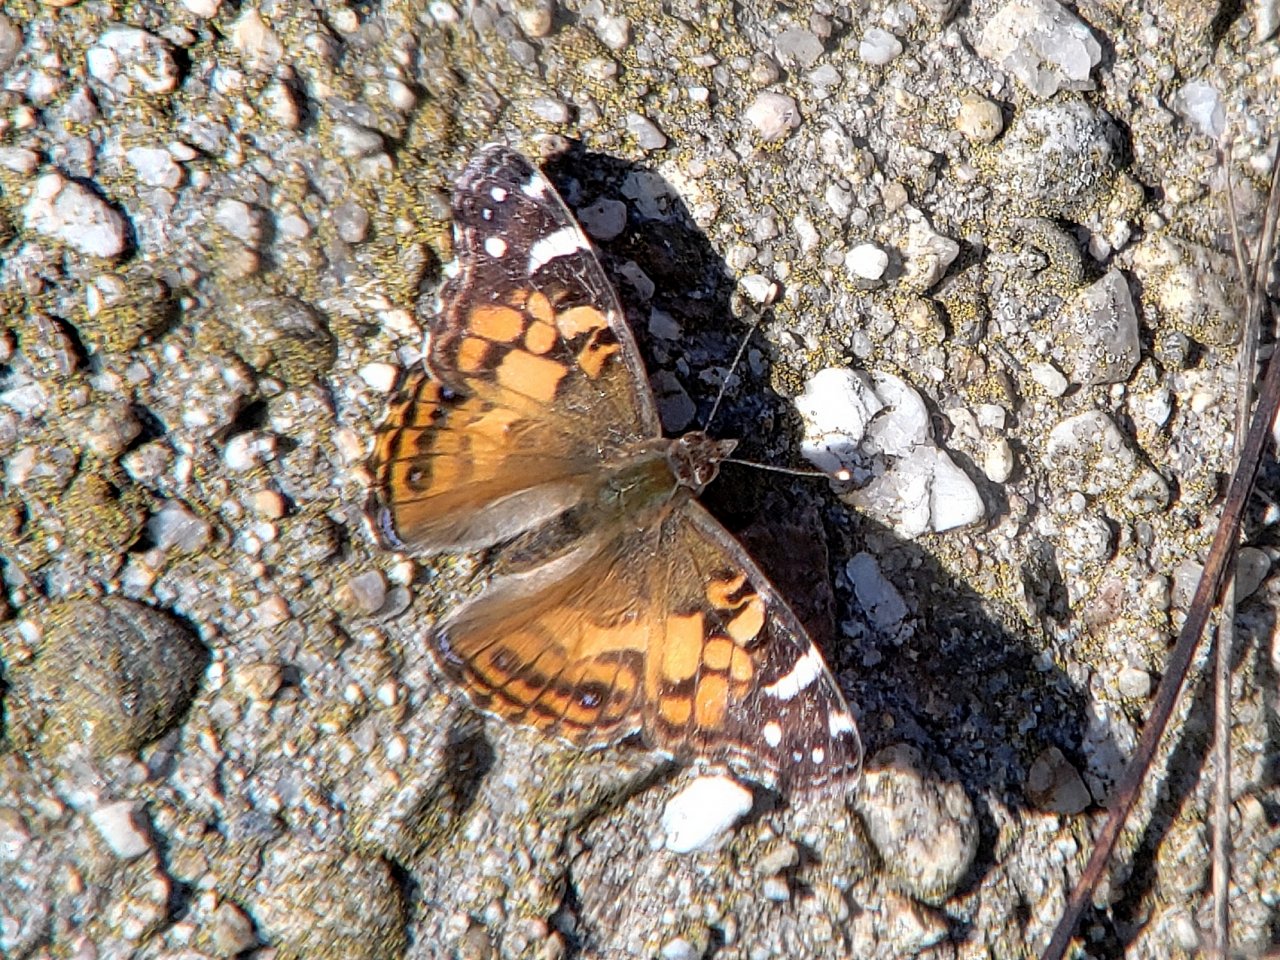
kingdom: Animalia
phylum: Arthropoda
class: Insecta
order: Lepidoptera
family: Nymphalidae
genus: Vanessa
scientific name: Vanessa virginiensis
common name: American Lady
